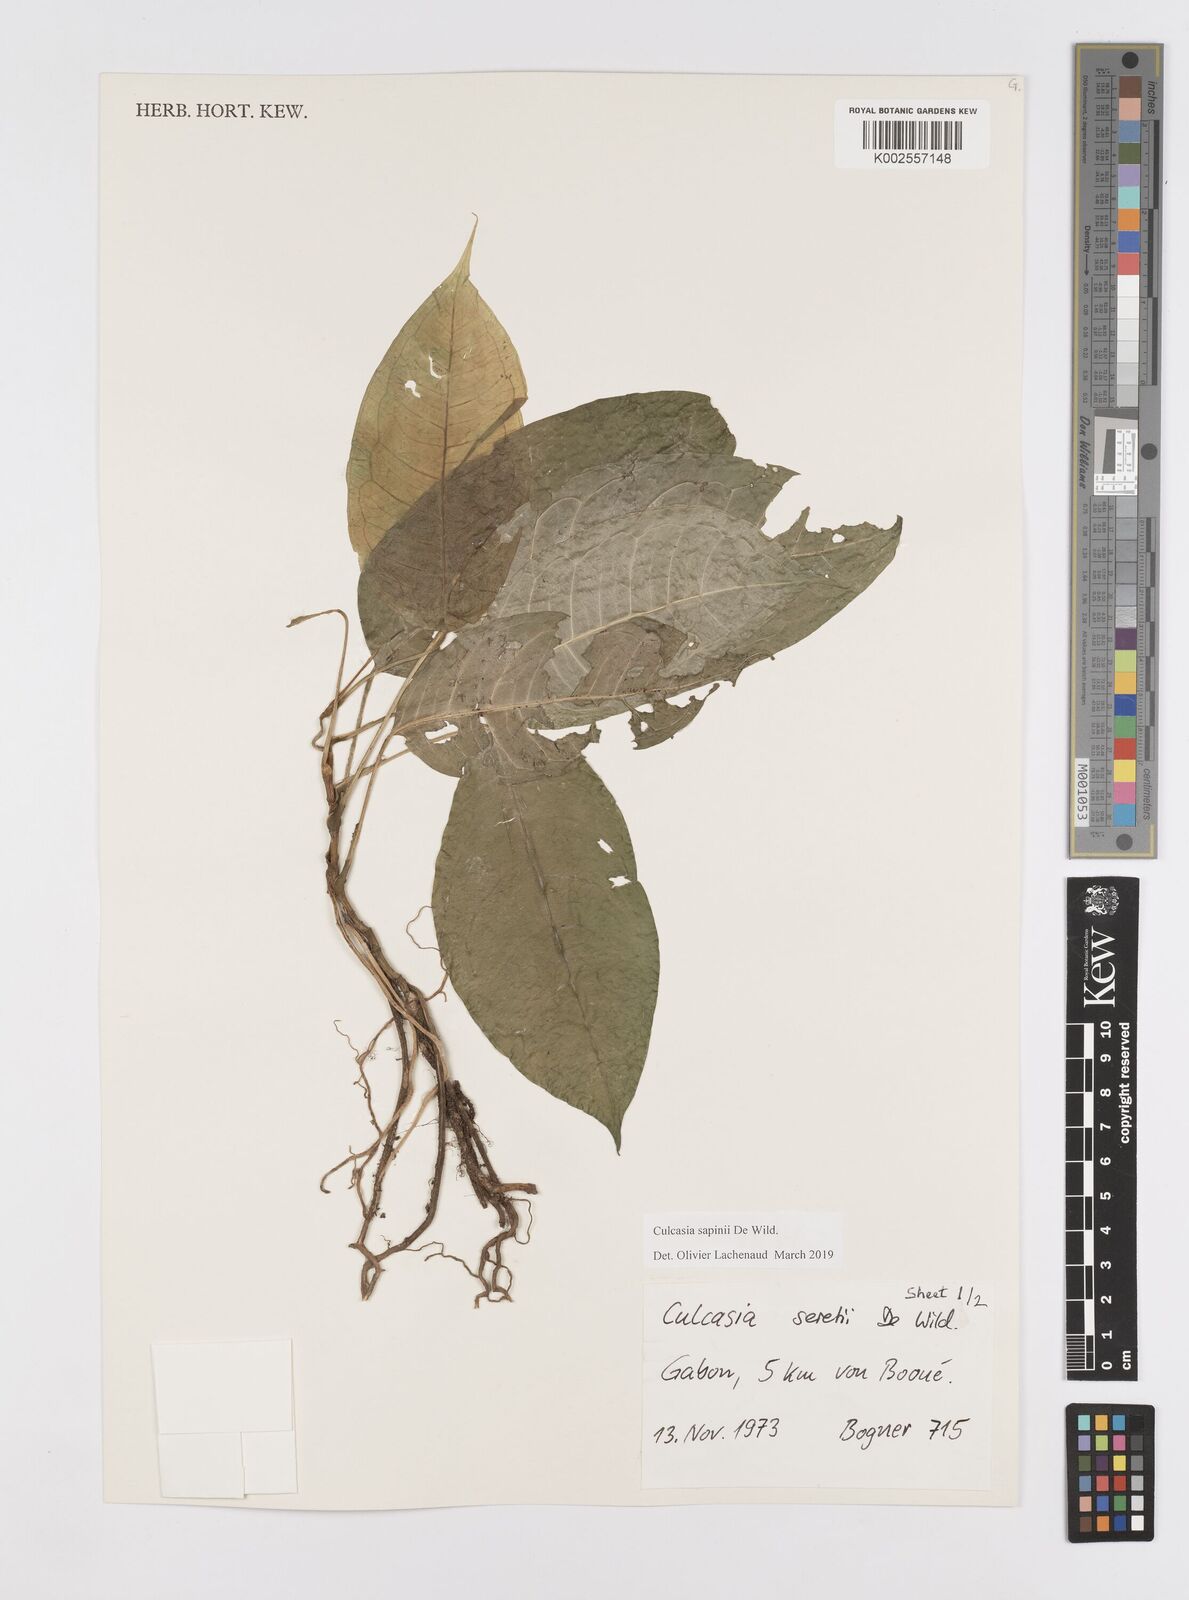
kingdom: Plantae
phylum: Tracheophyta
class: Liliopsida
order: Alismatales
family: Araceae
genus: Culcasia
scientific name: Culcasia seretii
